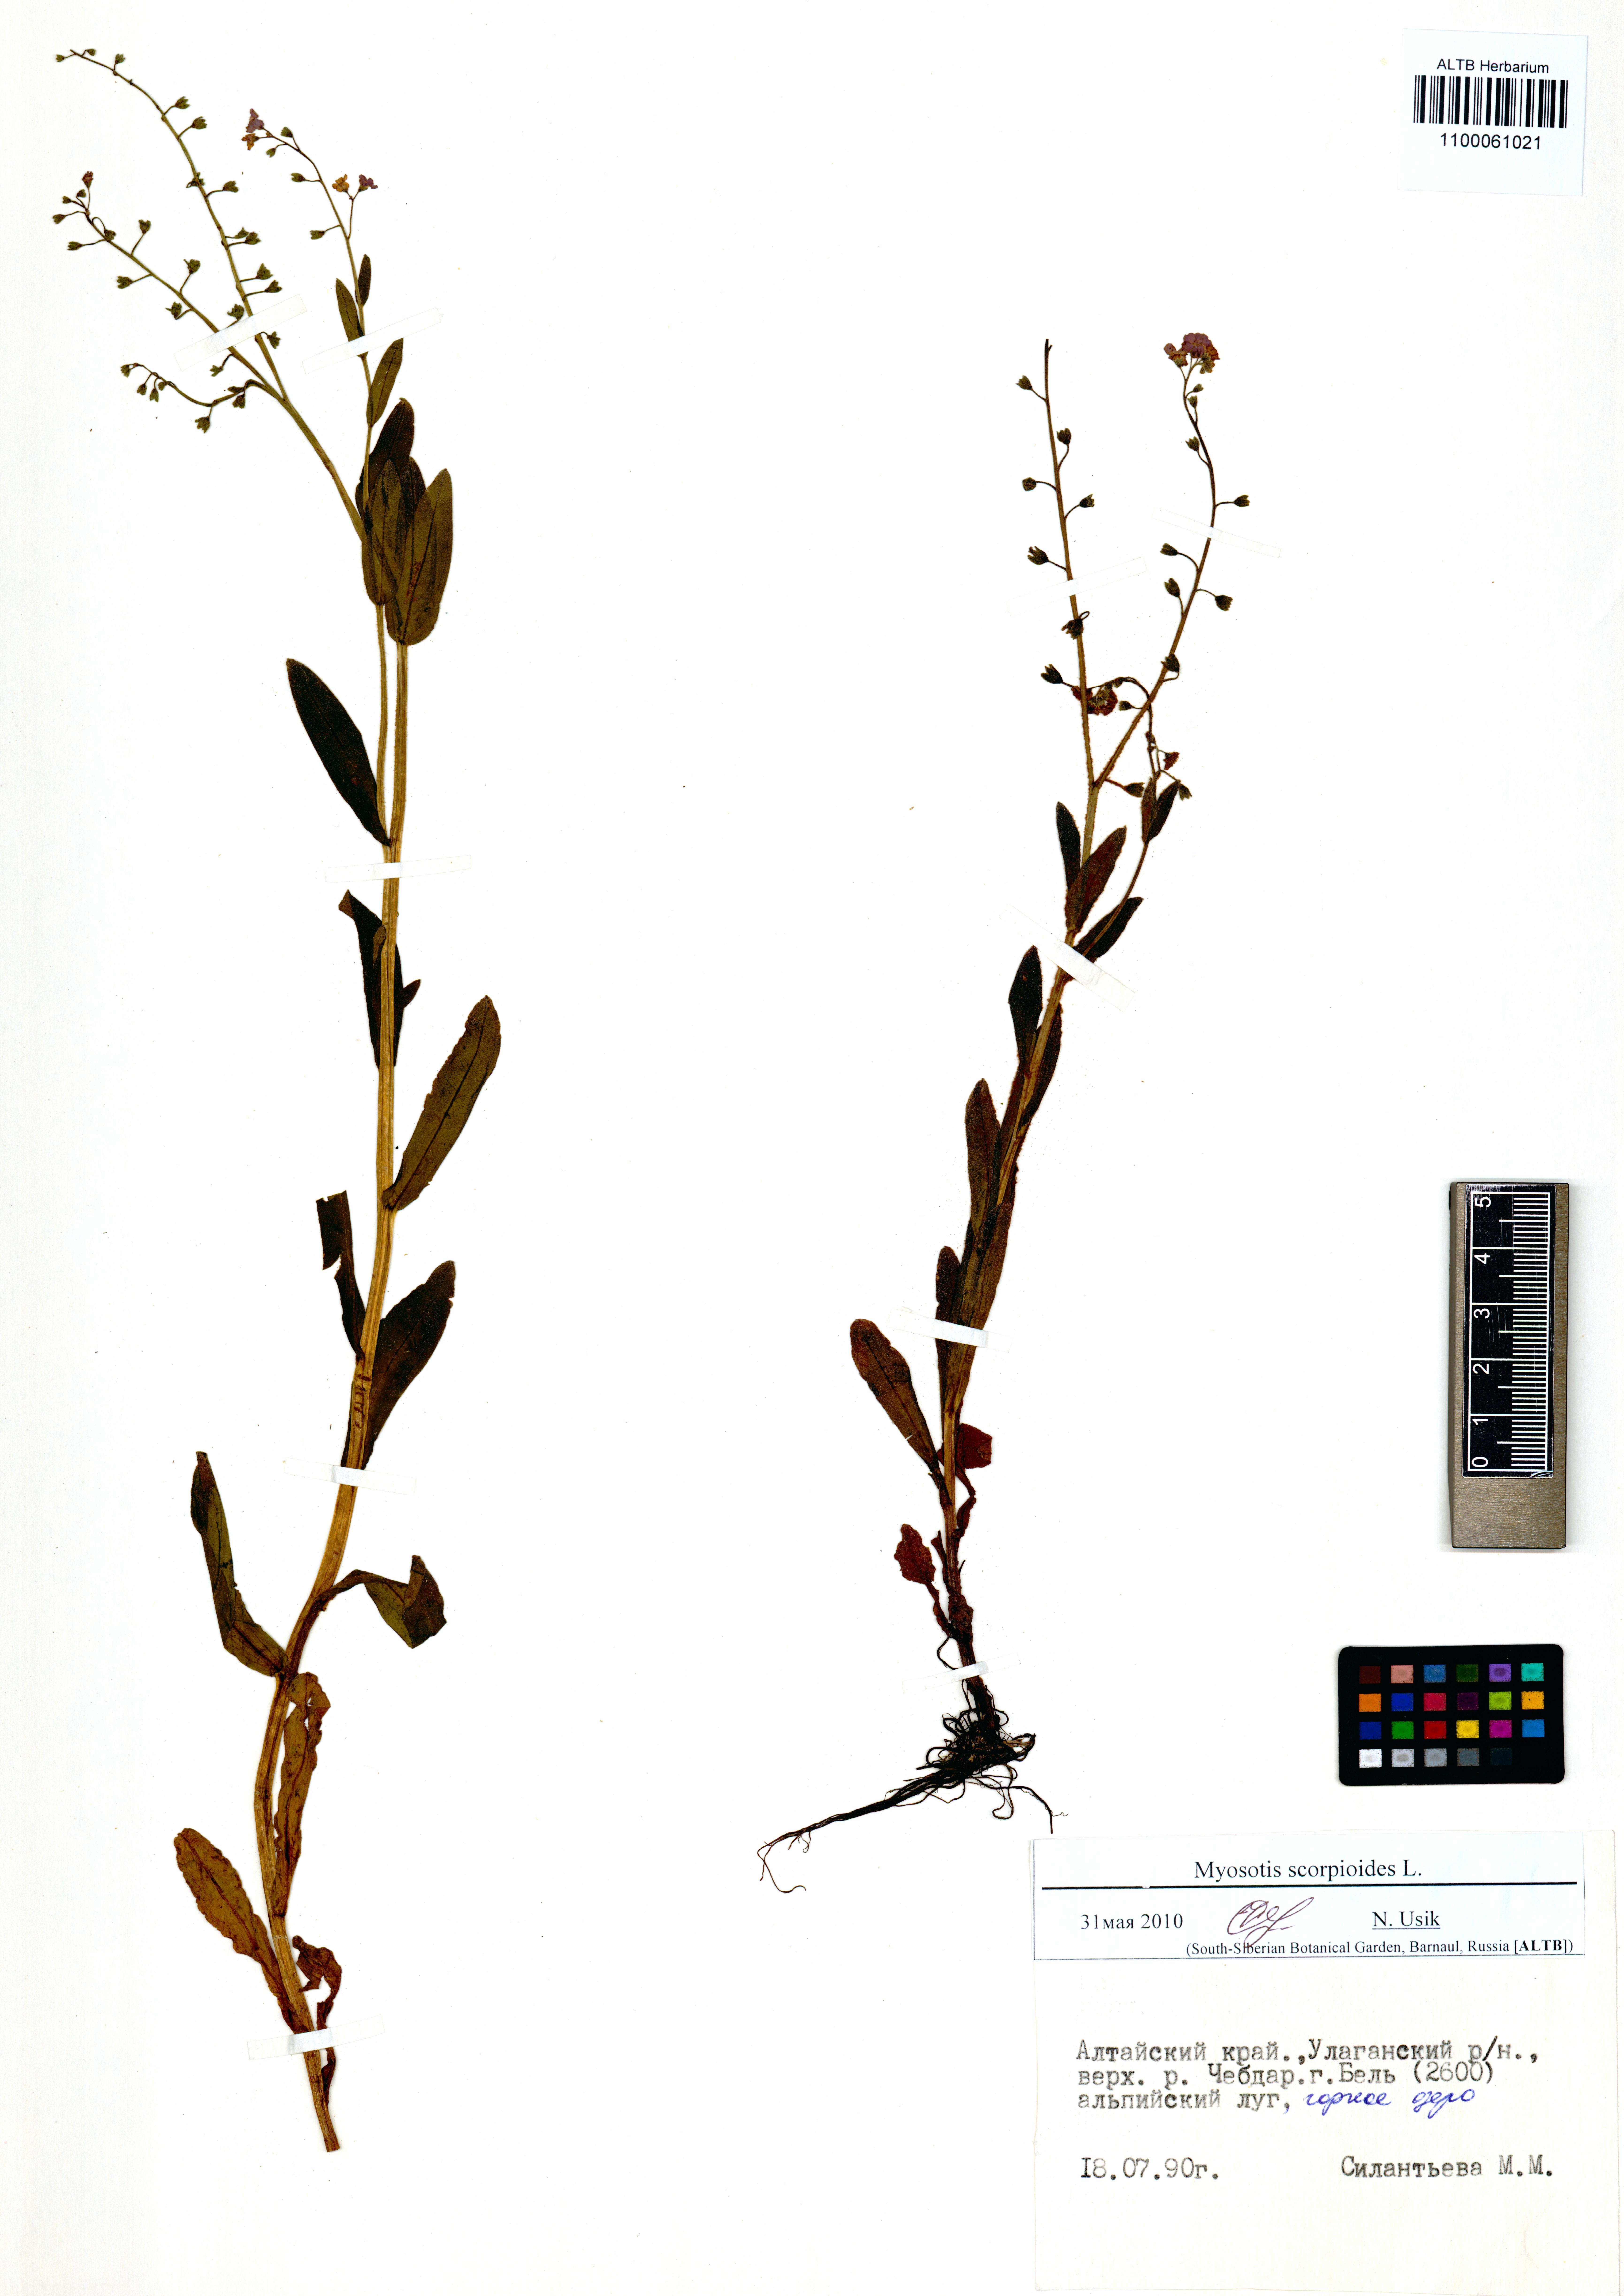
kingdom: Plantae
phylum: Tracheophyta
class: Magnoliopsida
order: Boraginales
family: Boraginaceae
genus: Myosotis
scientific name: Myosotis scorpioides
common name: Water forget-me-not
